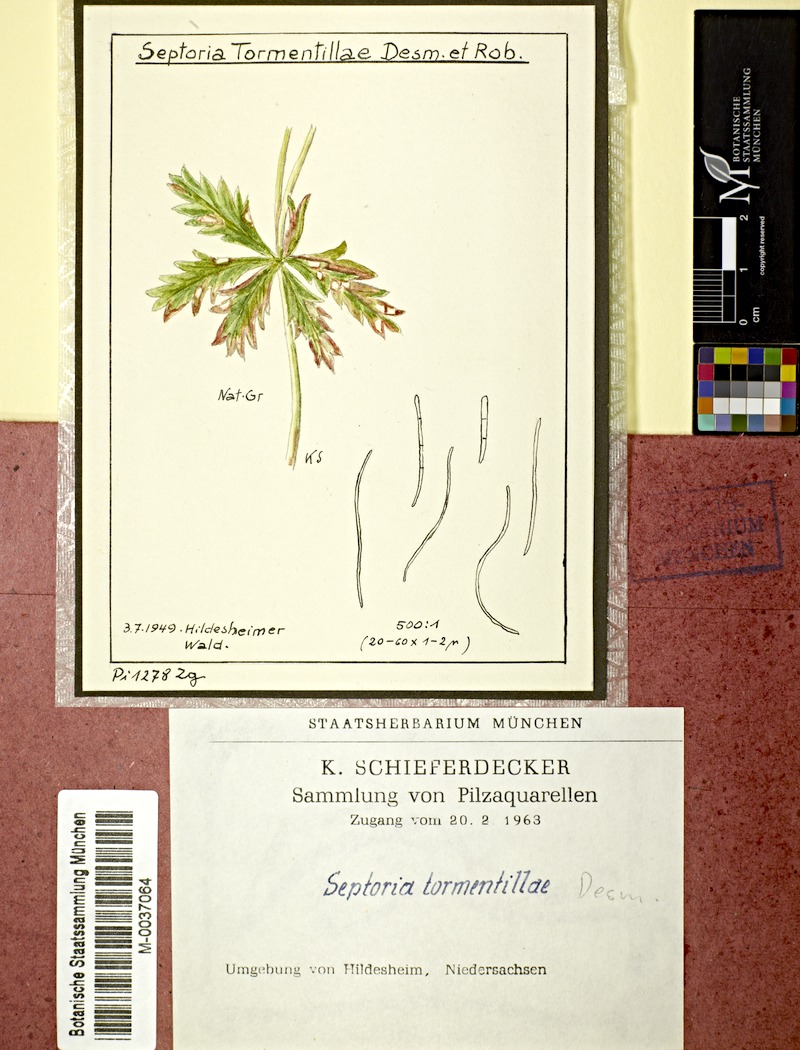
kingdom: Fungi
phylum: Ascomycota
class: Dothideomycetes
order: Mycosphaerellales
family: Mycosphaerellaceae
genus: Septoria
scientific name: Septoria tormentillae
